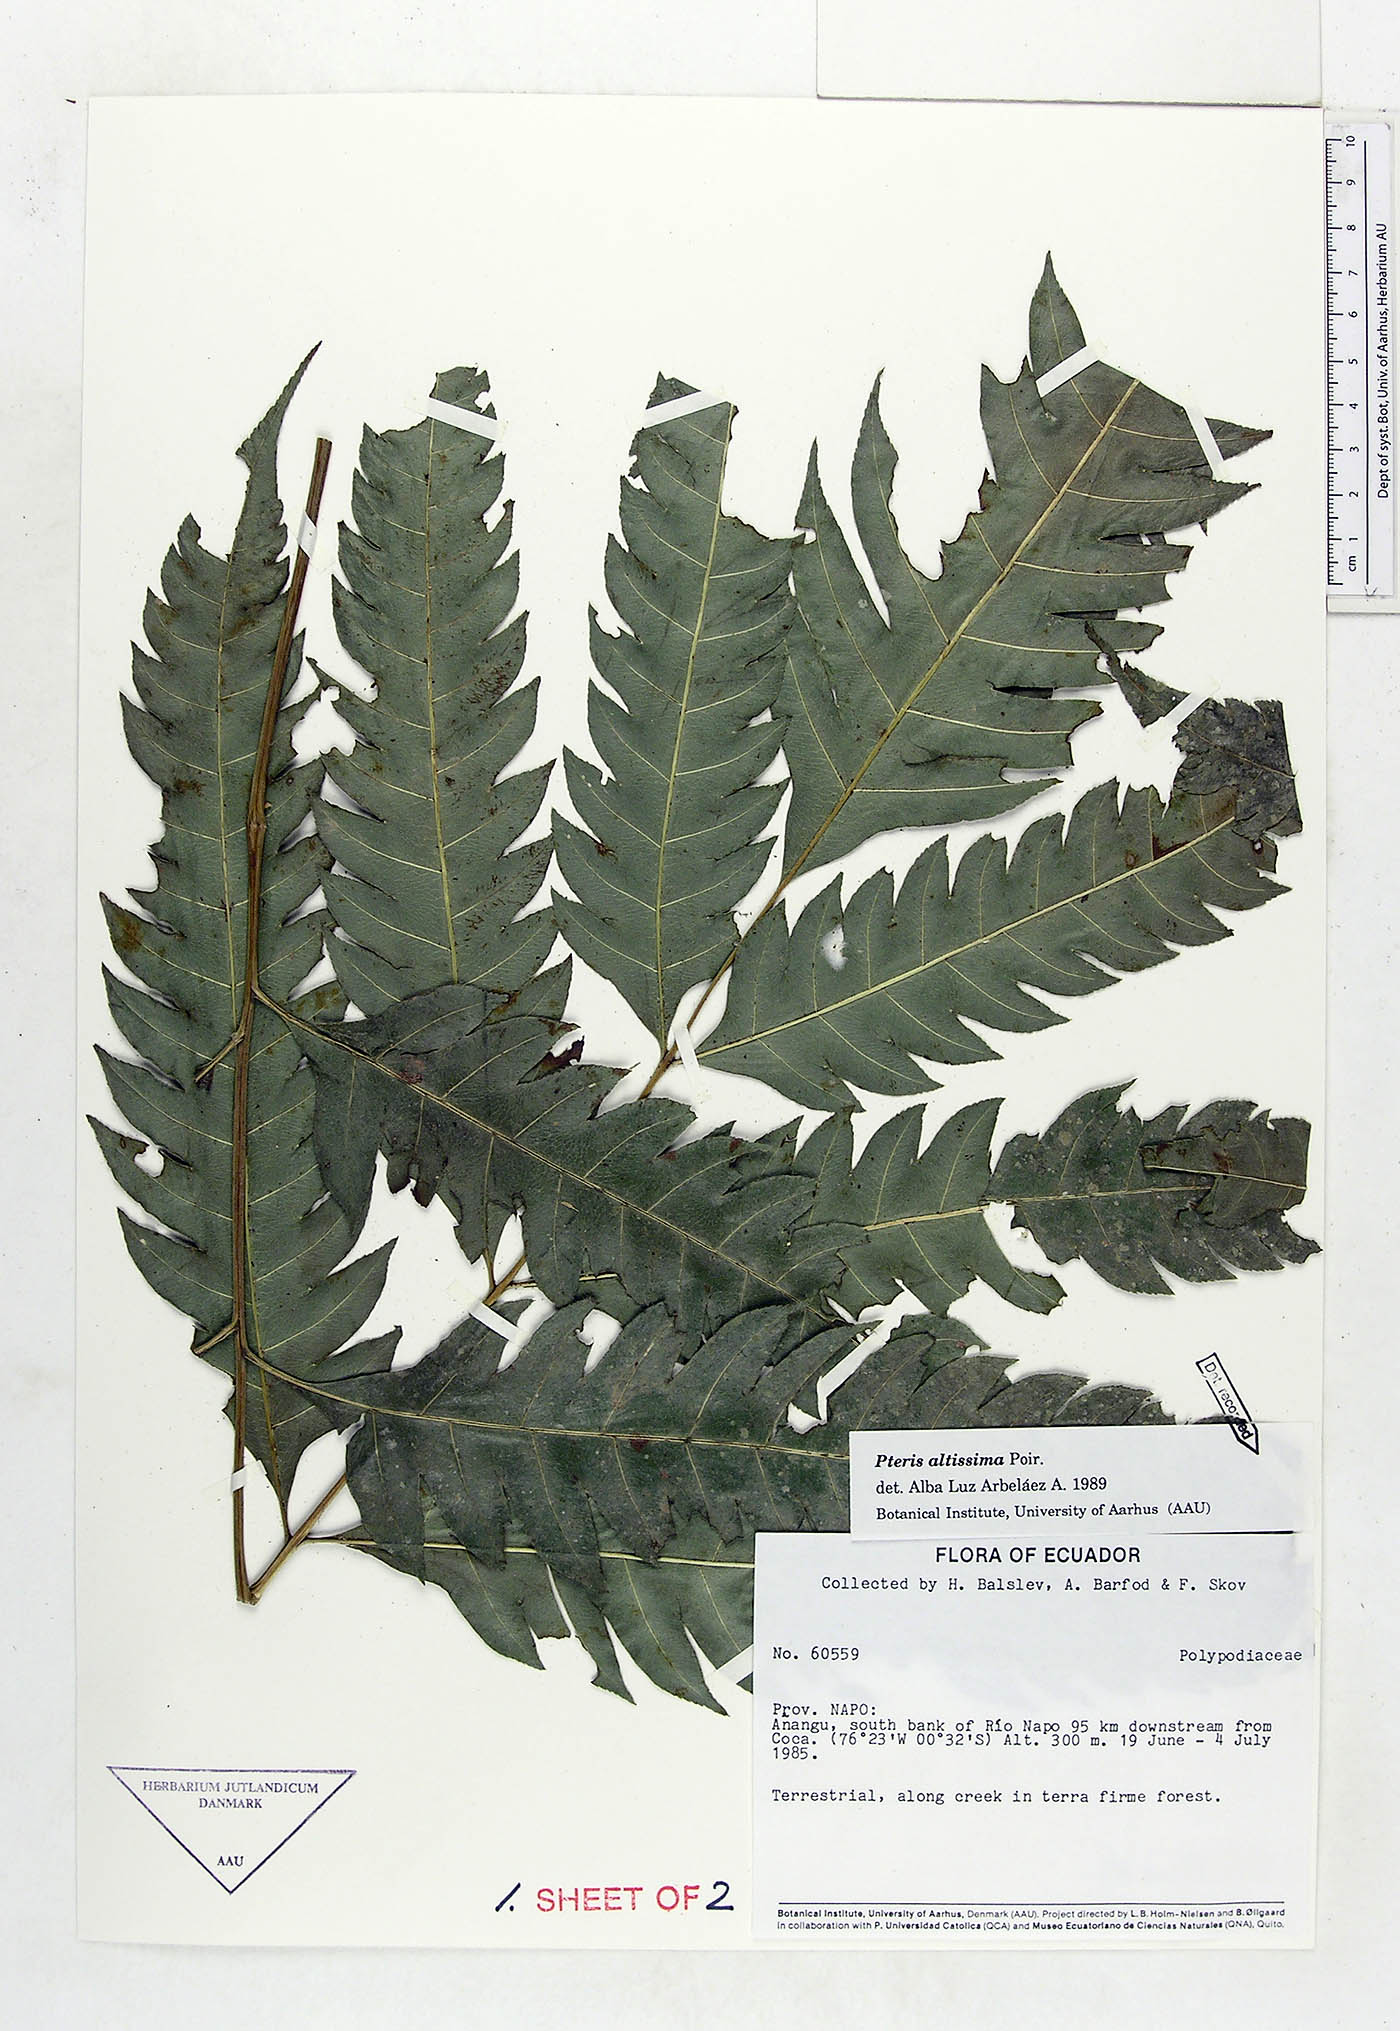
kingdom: Plantae
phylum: Tracheophyta
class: Polypodiopsida
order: Polypodiales
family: Pteridaceae
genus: Pteris
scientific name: Pteris altissima
